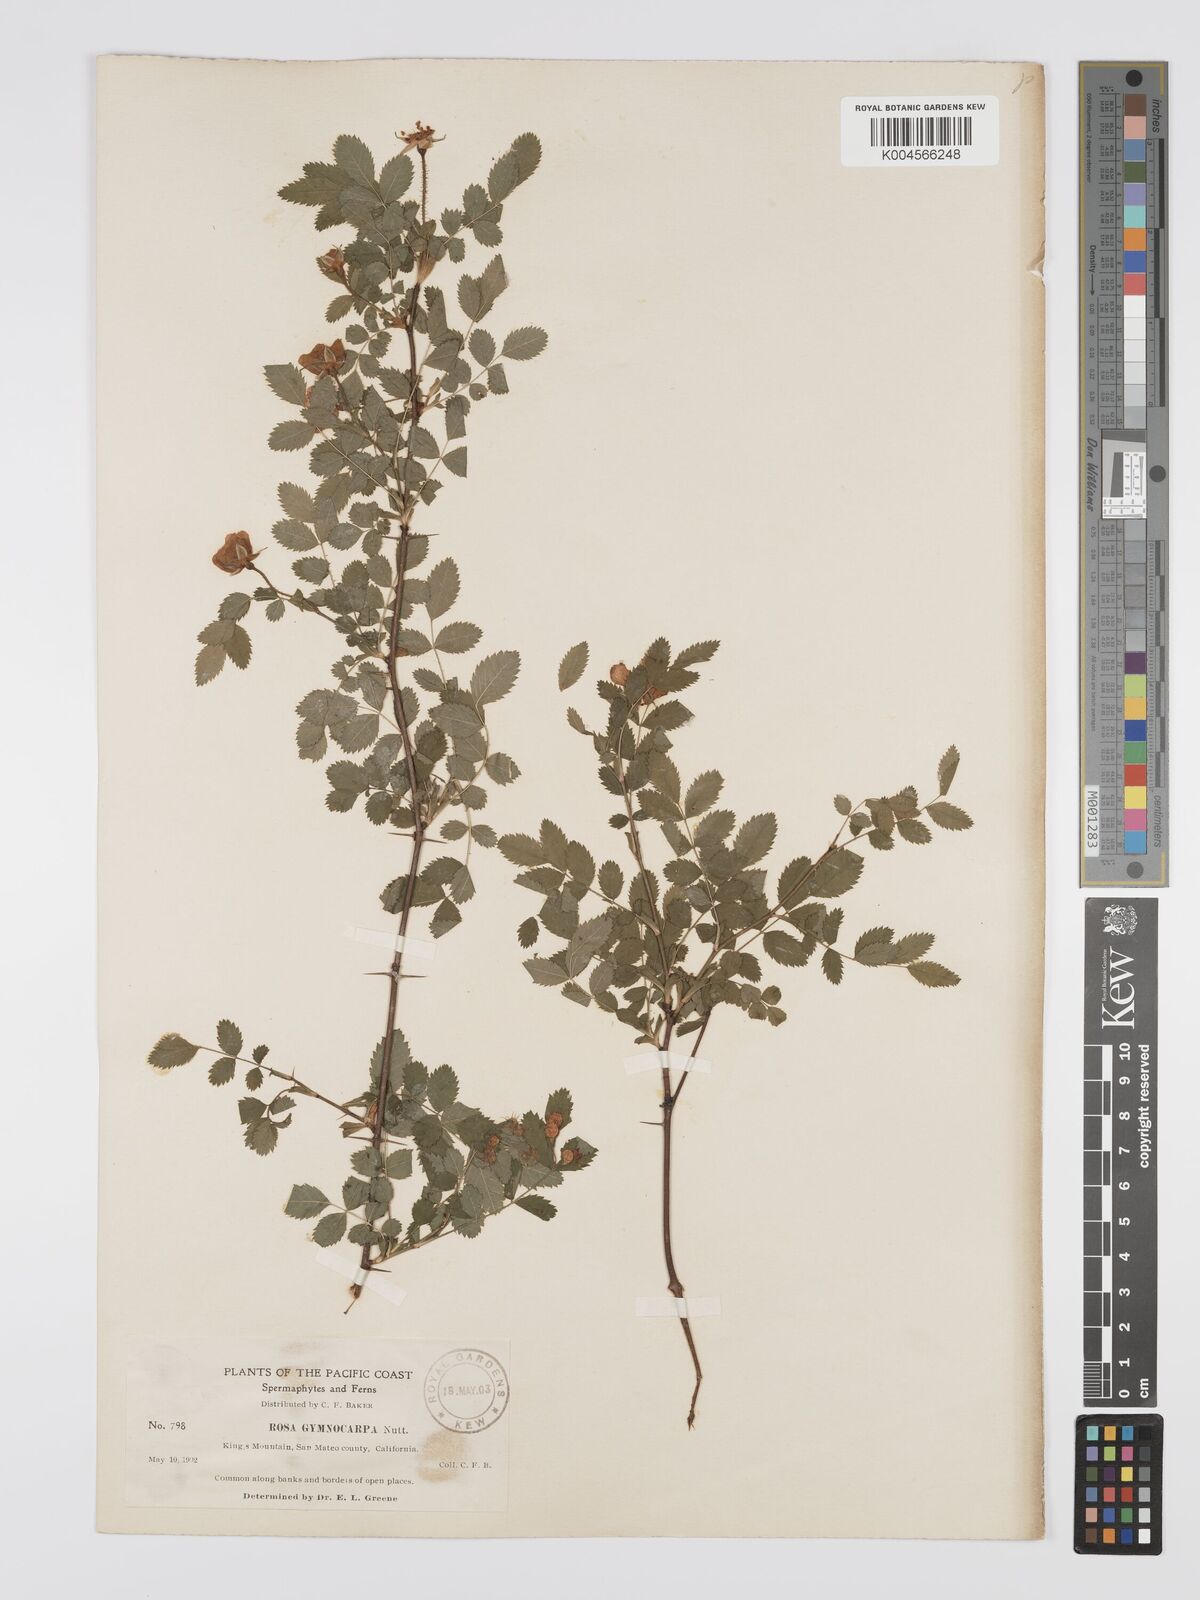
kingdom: Plantae
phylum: Tracheophyta
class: Magnoliopsida
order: Rosales
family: Rosaceae
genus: Rosa
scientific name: Rosa gymnocarpa
